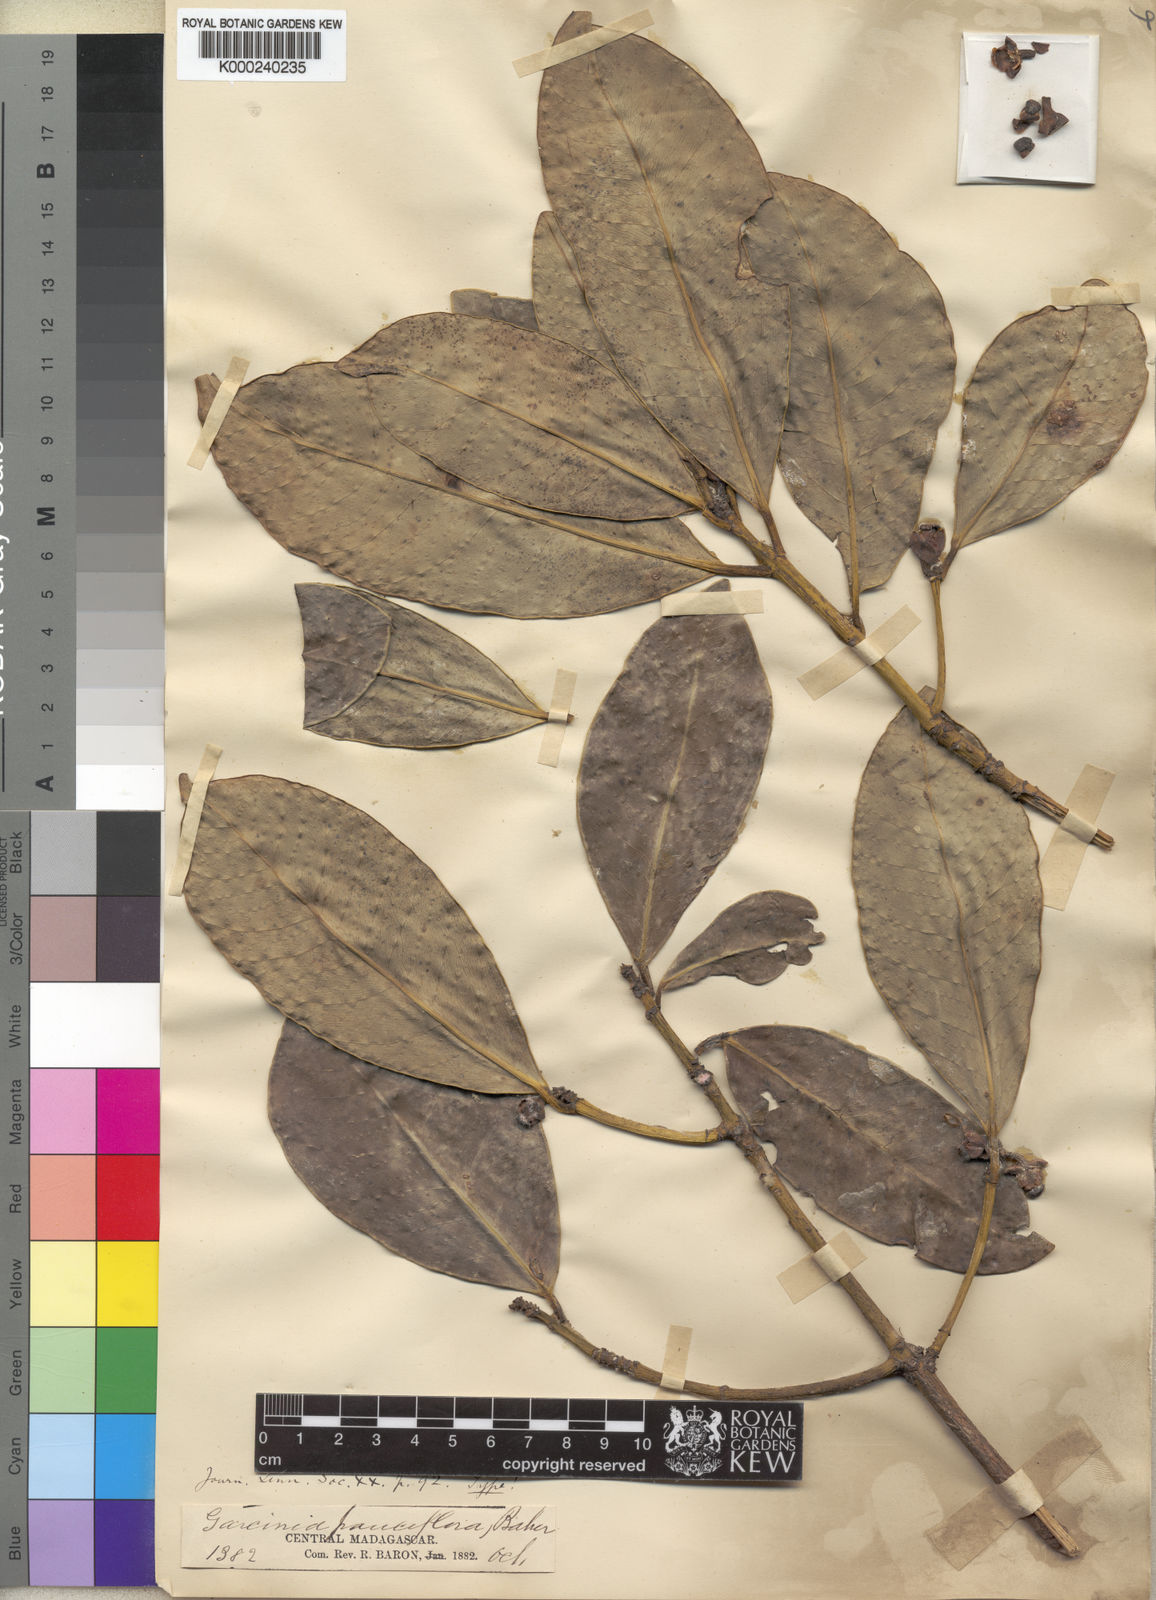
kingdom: Plantae
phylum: Tracheophyta
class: Magnoliopsida
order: Malpighiales
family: Clusiaceae
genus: Garcinia
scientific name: Garcinia pauciflora
